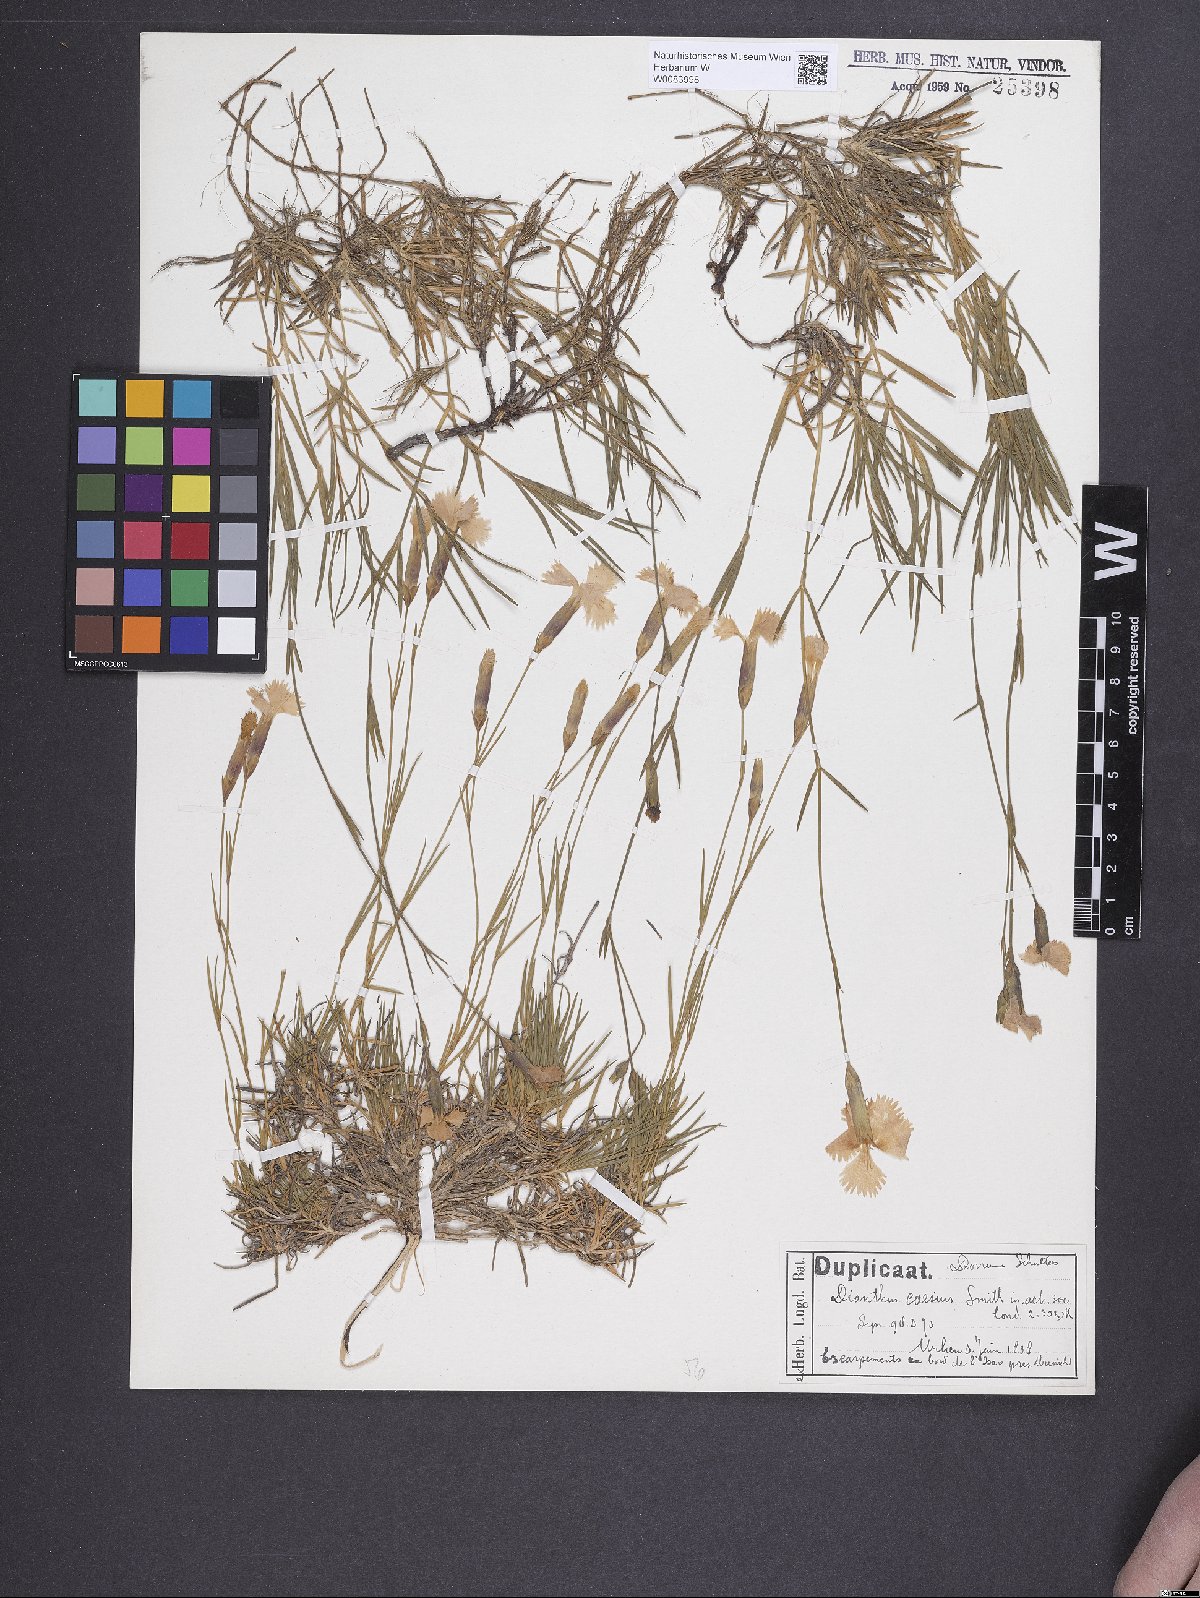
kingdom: Plantae
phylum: Tracheophyta
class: Magnoliopsida
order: Caryophyllales
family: Caryophyllaceae
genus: Dianthus
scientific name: Dianthus gratianopolitanus
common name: Cheddar pink
